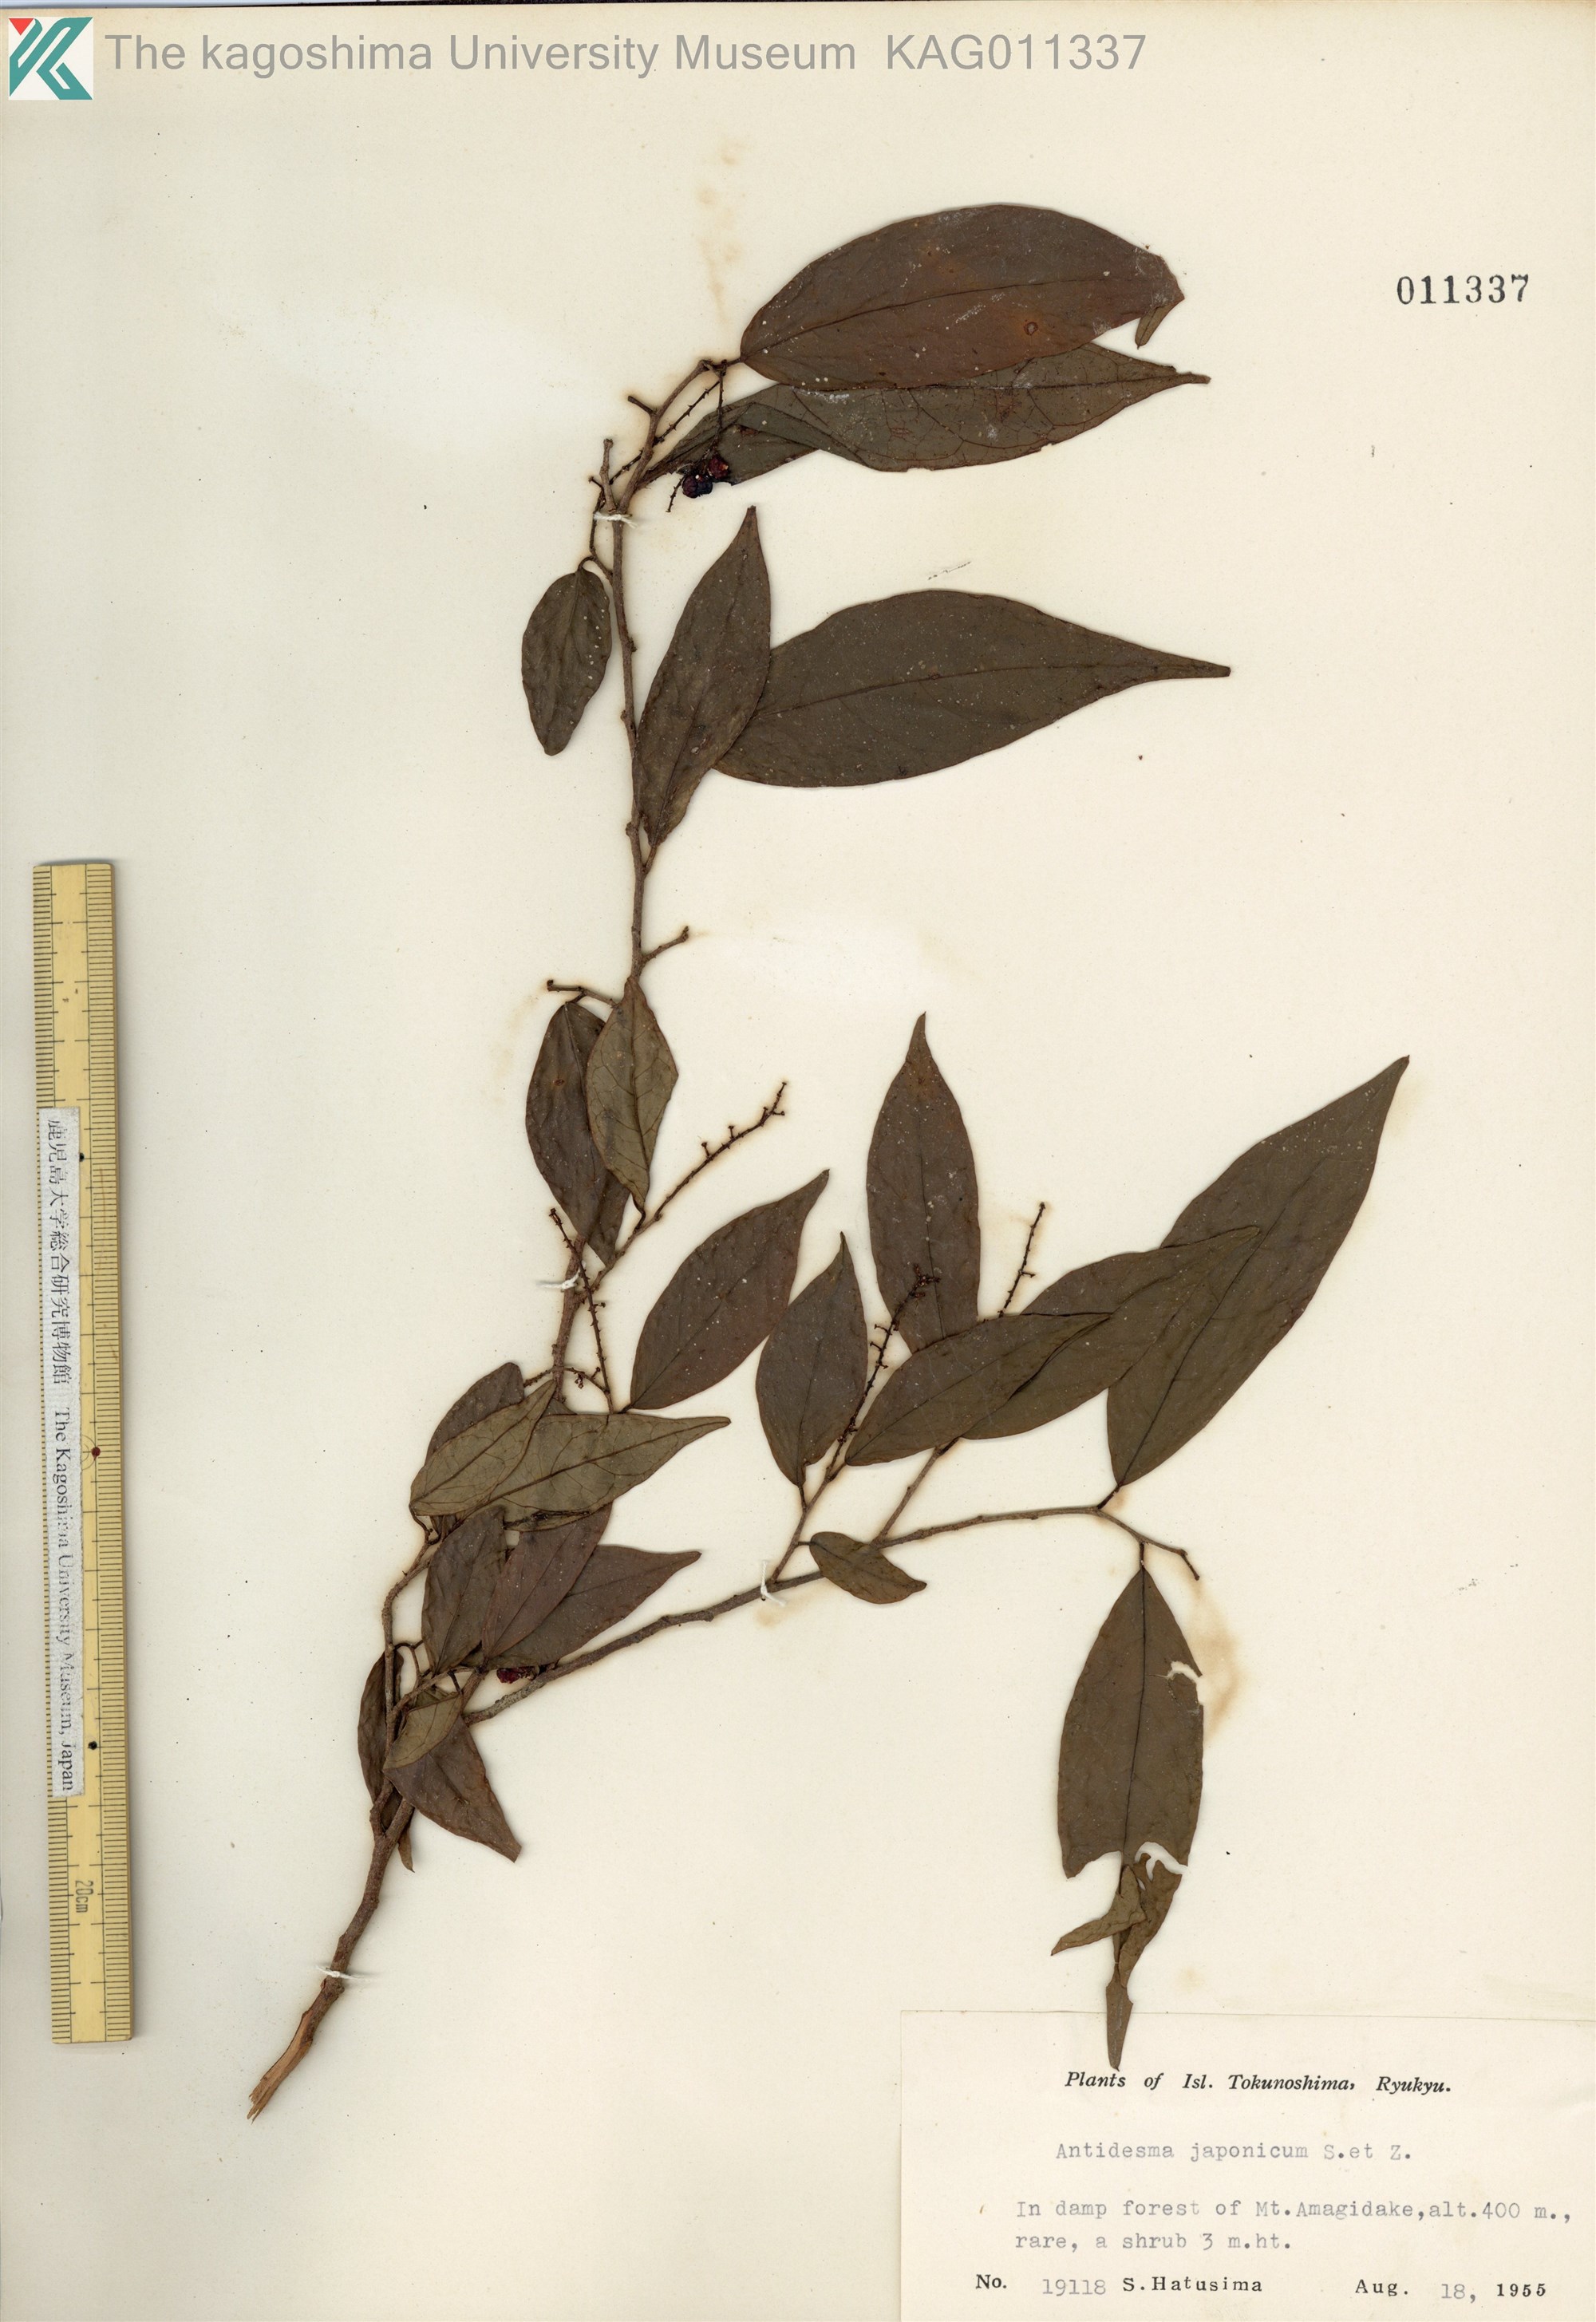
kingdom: Plantae
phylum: Tracheophyta
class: Magnoliopsida
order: Malpighiales
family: Phyllanthaceae
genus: Antidesma
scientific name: Antidesma japonicum
